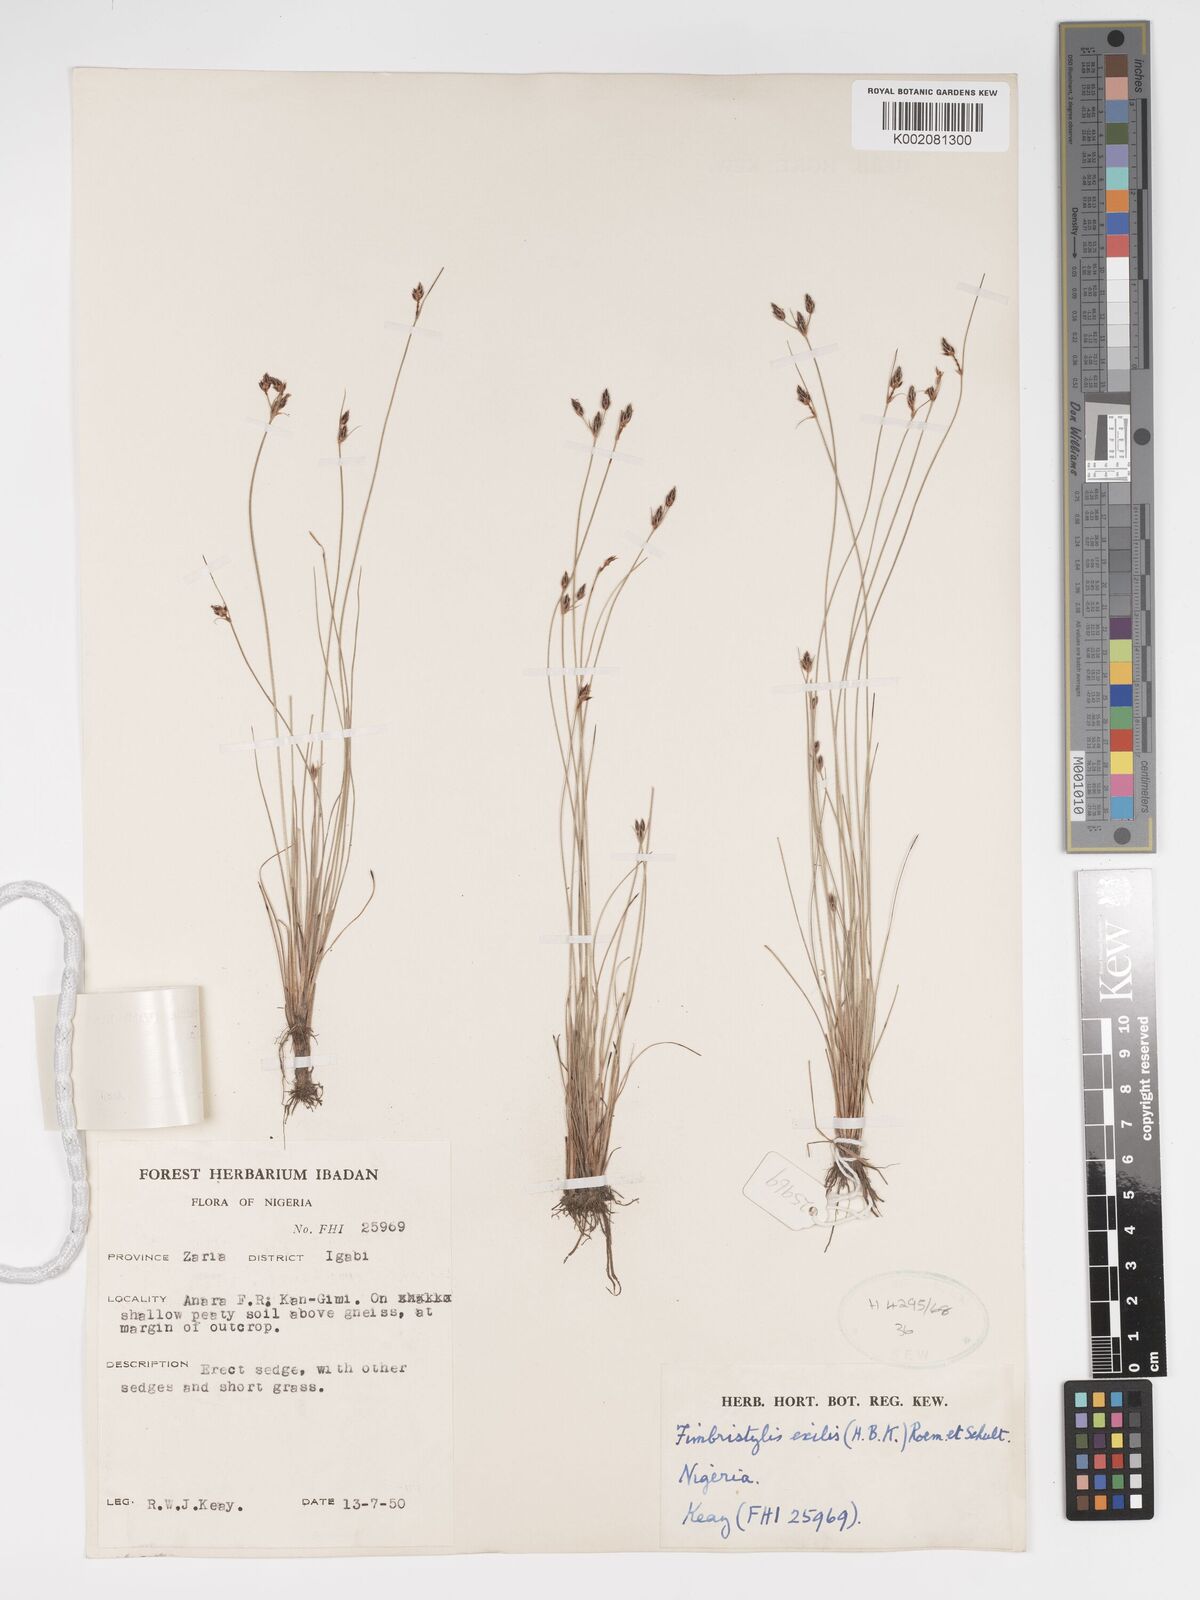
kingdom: Plantae
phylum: Tracheophyta
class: Liliopsida
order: Poales
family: Cyperaceae
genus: Bulbostylis
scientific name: Bulbostylis hispidula
